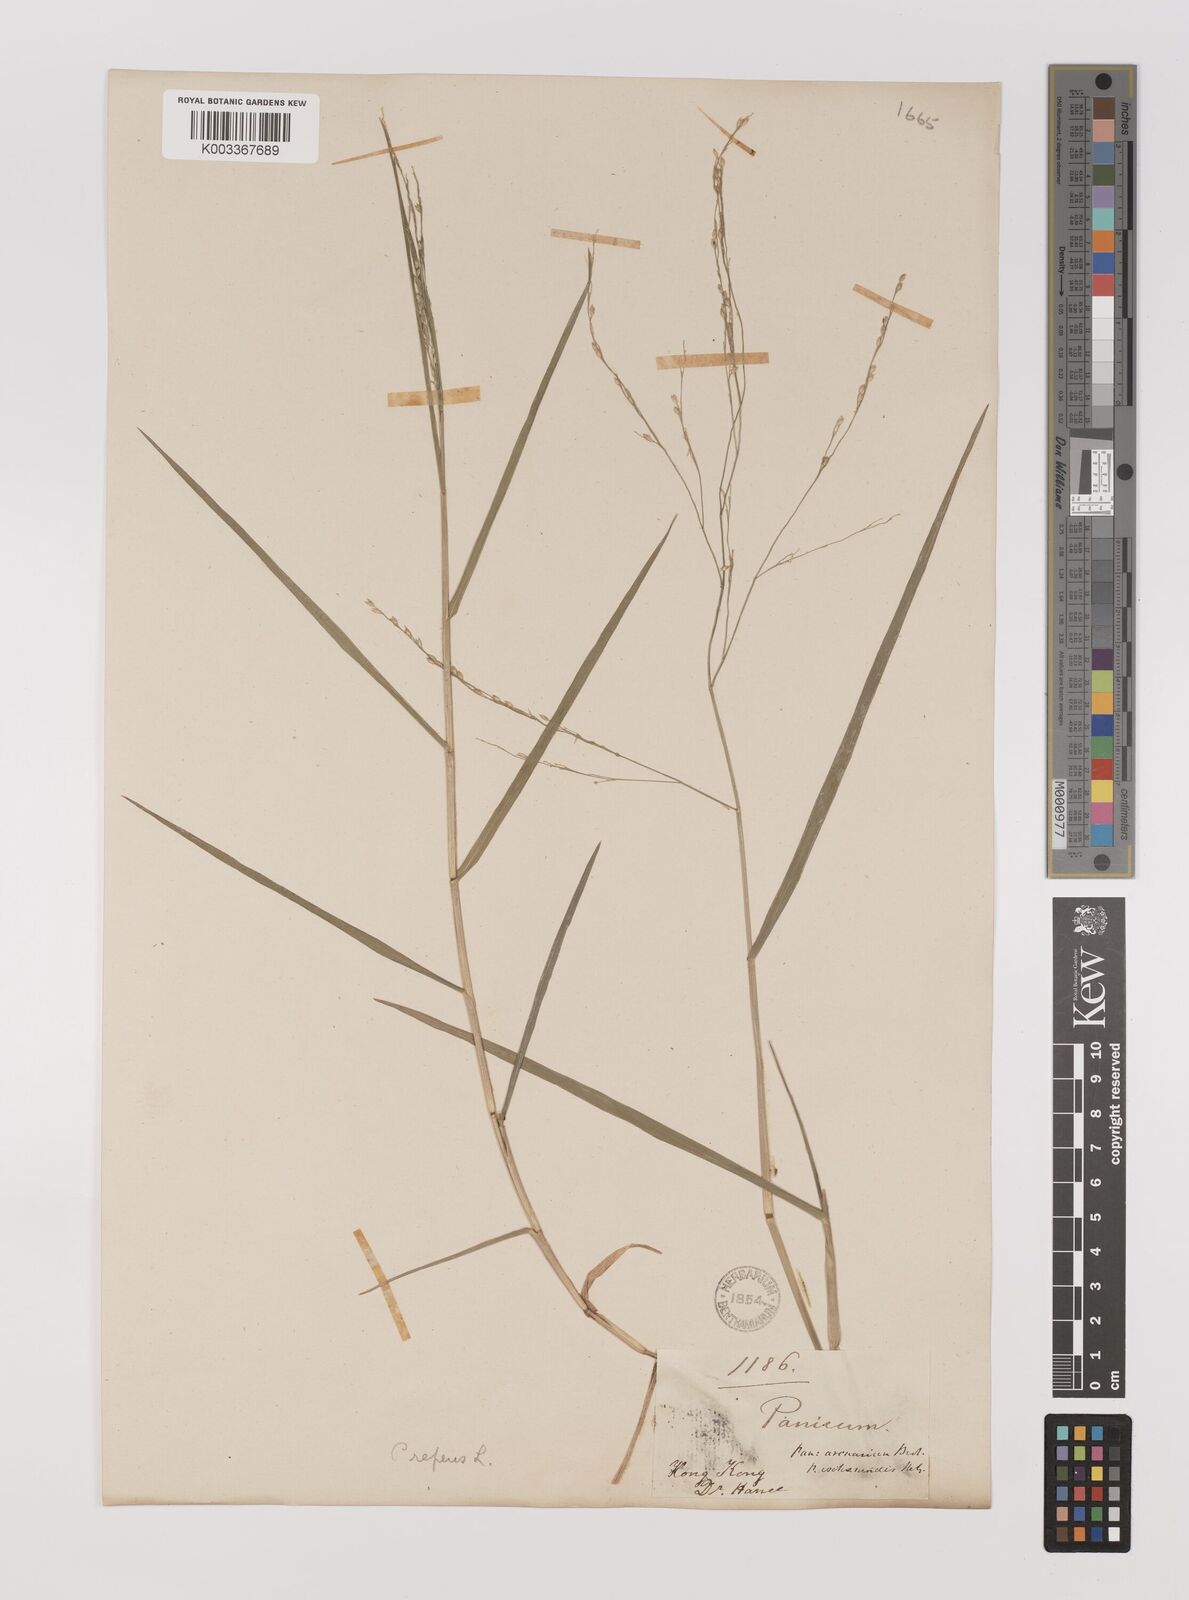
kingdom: Plantae
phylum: Tracheophyta
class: Liliopsida
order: Poales
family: Poaceae
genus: Panicum
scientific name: Panicum repens
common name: Torpedo grass
